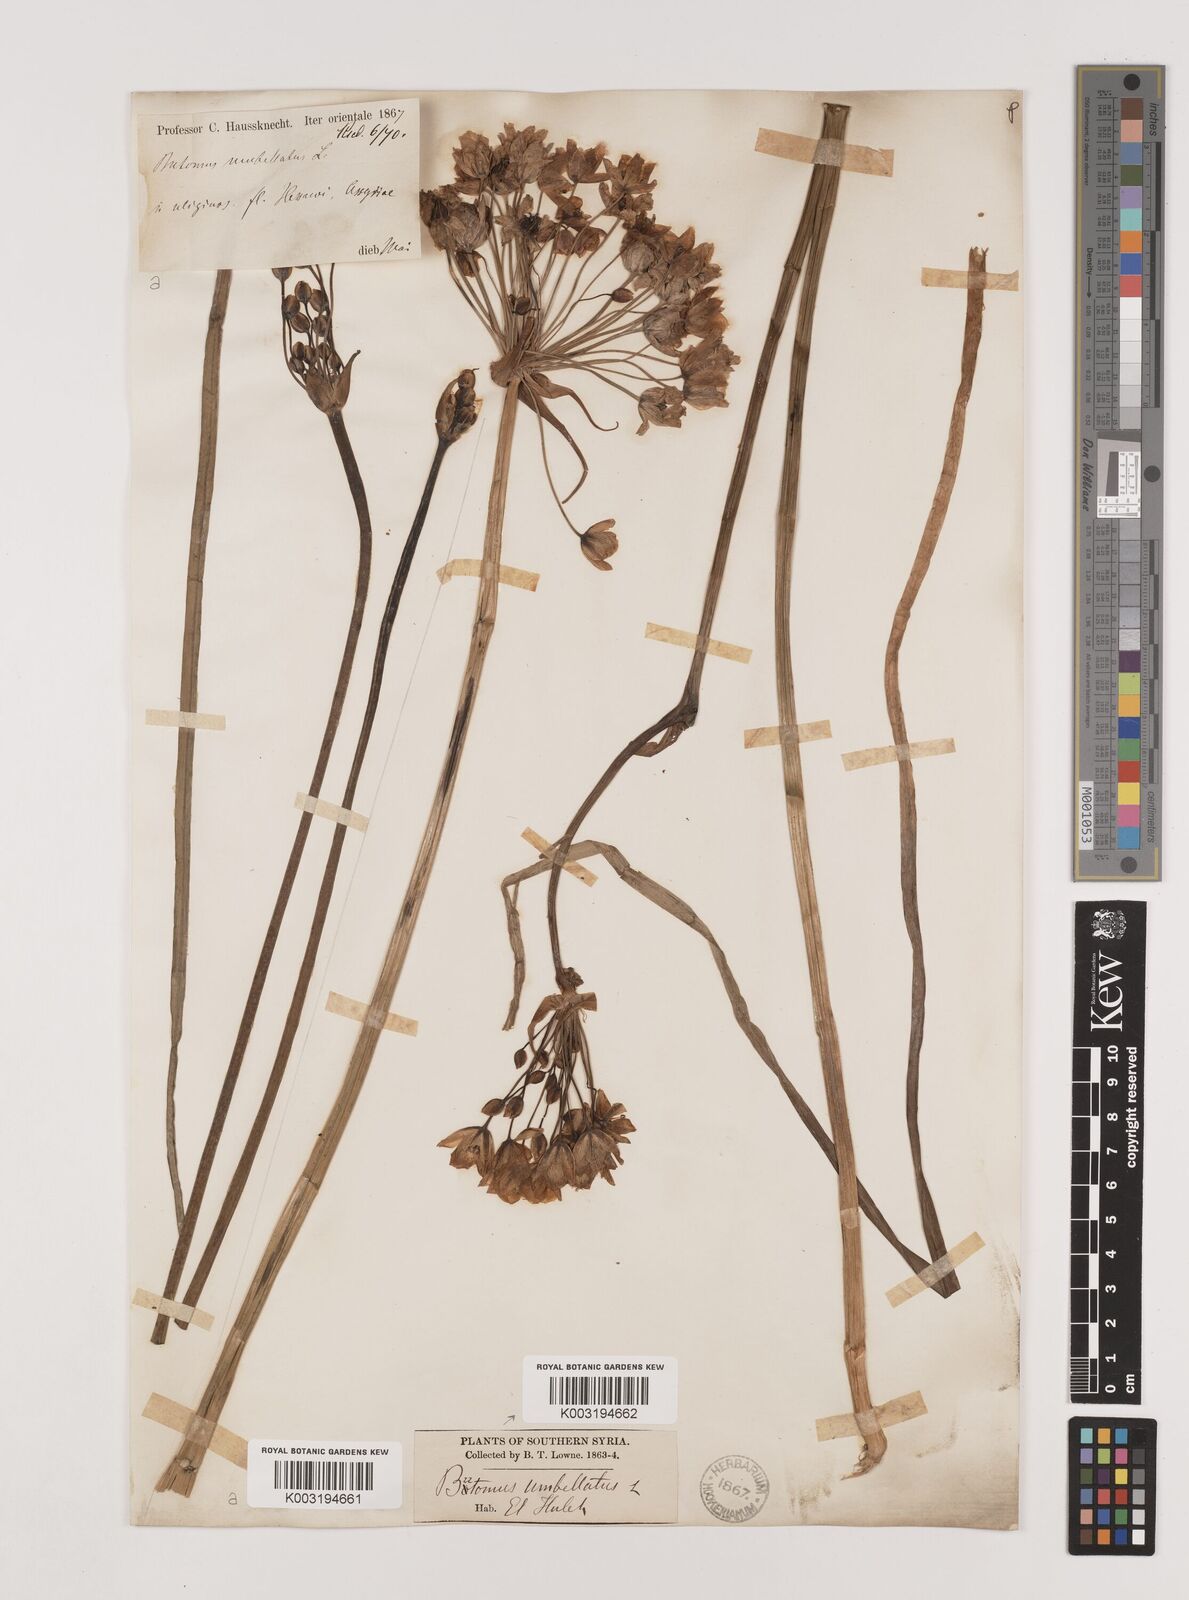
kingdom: Plantae
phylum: Tracheophyta
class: Liliopsida
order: Alismatales
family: Butomaceae
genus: Butomus
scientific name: Butomus
